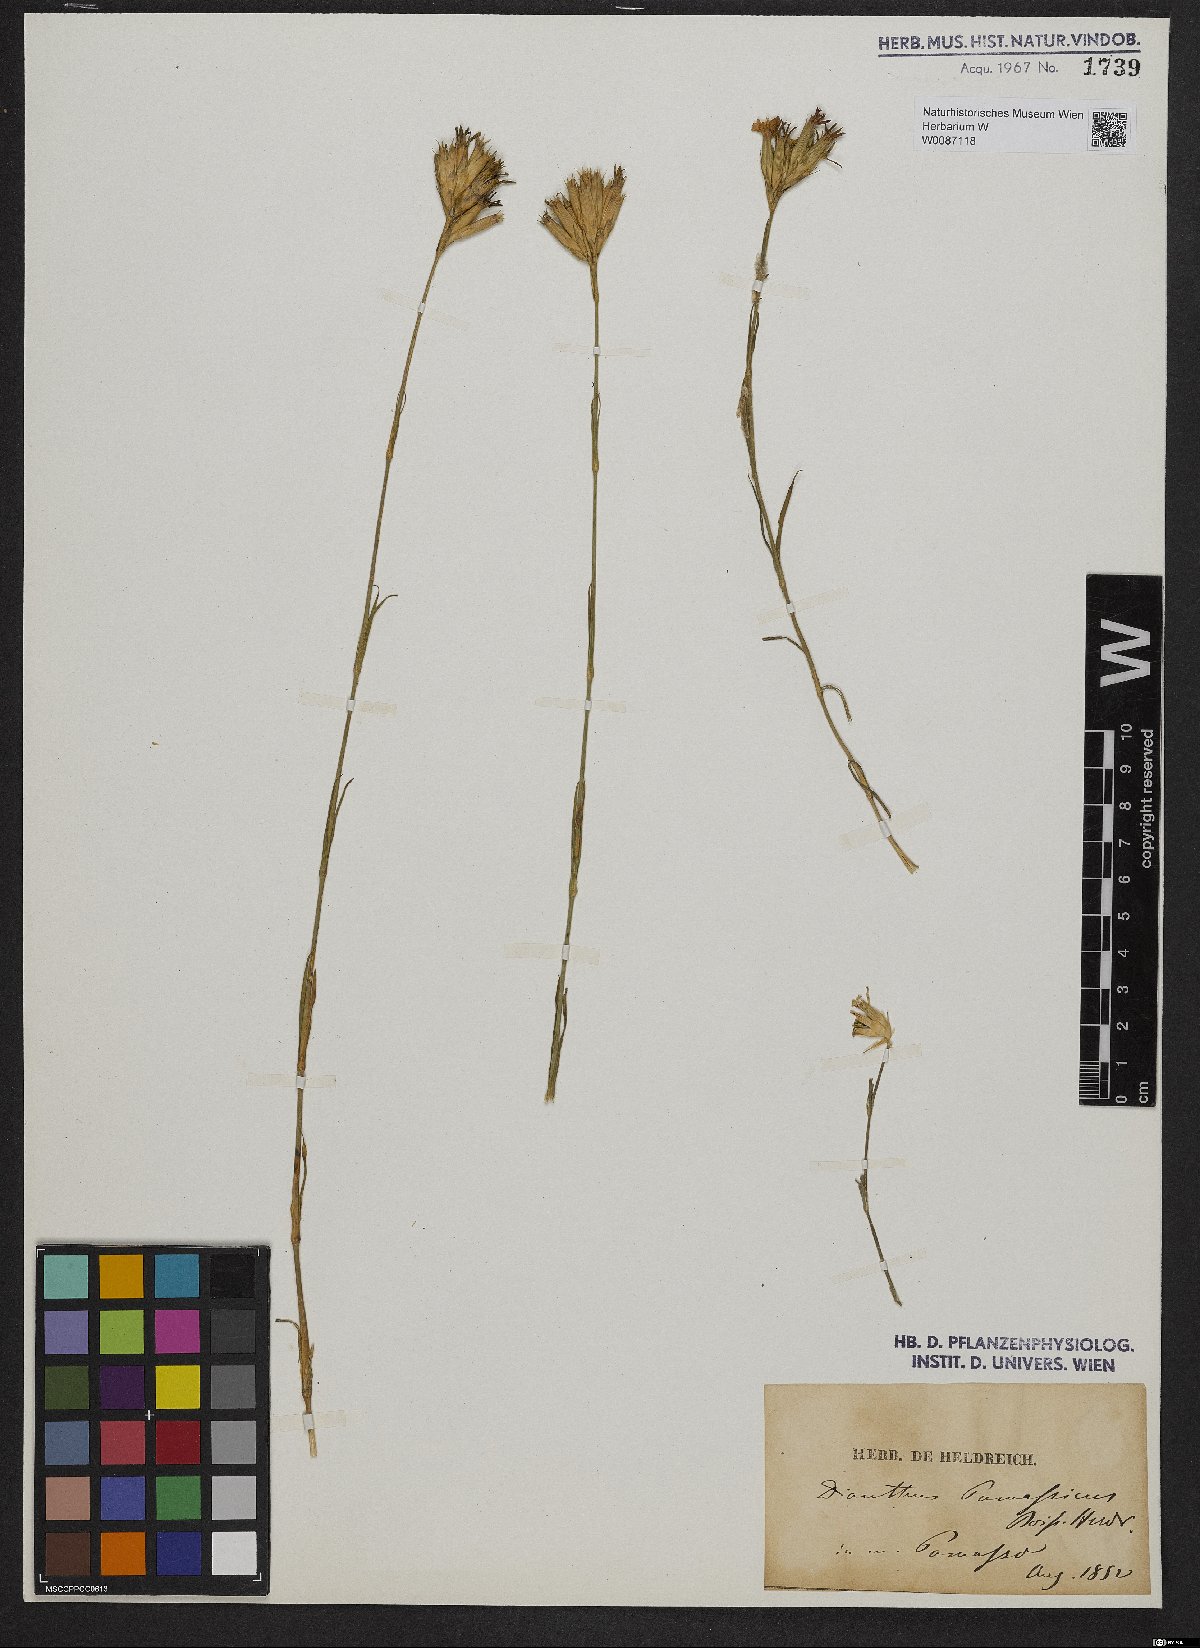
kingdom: Plantae
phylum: Tracheophyta
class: Magnoliopsida
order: Caryophyllales
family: Caryophyllaceae
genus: Dianthus
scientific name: Dianthus viscidus
